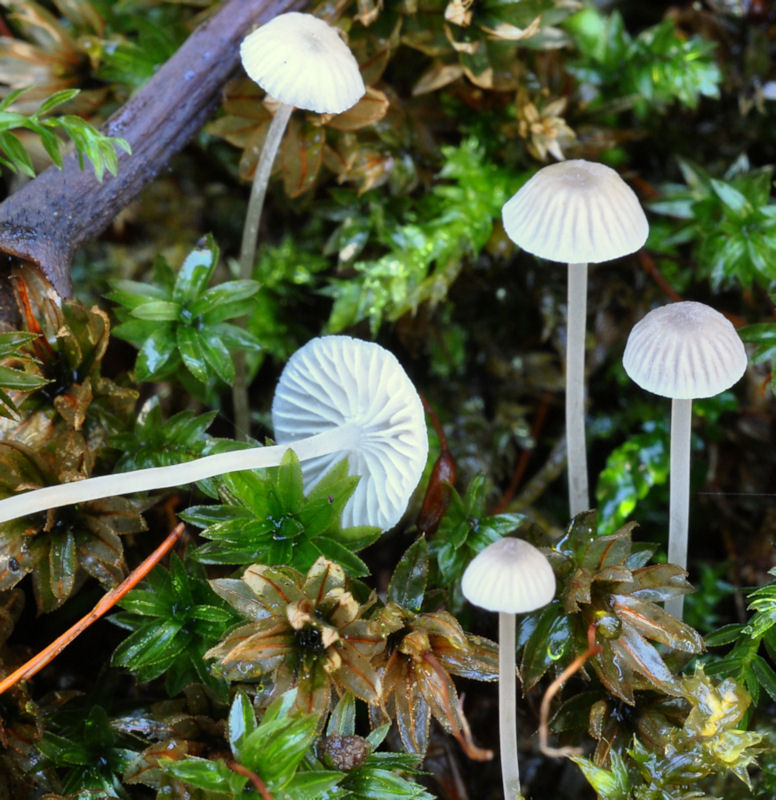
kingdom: Fungi
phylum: Basidiomycota
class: Agaricomycetes
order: Agaricales
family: Mycenaceae
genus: Mycena
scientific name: Mycena cinerella
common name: mel-huesvamp
